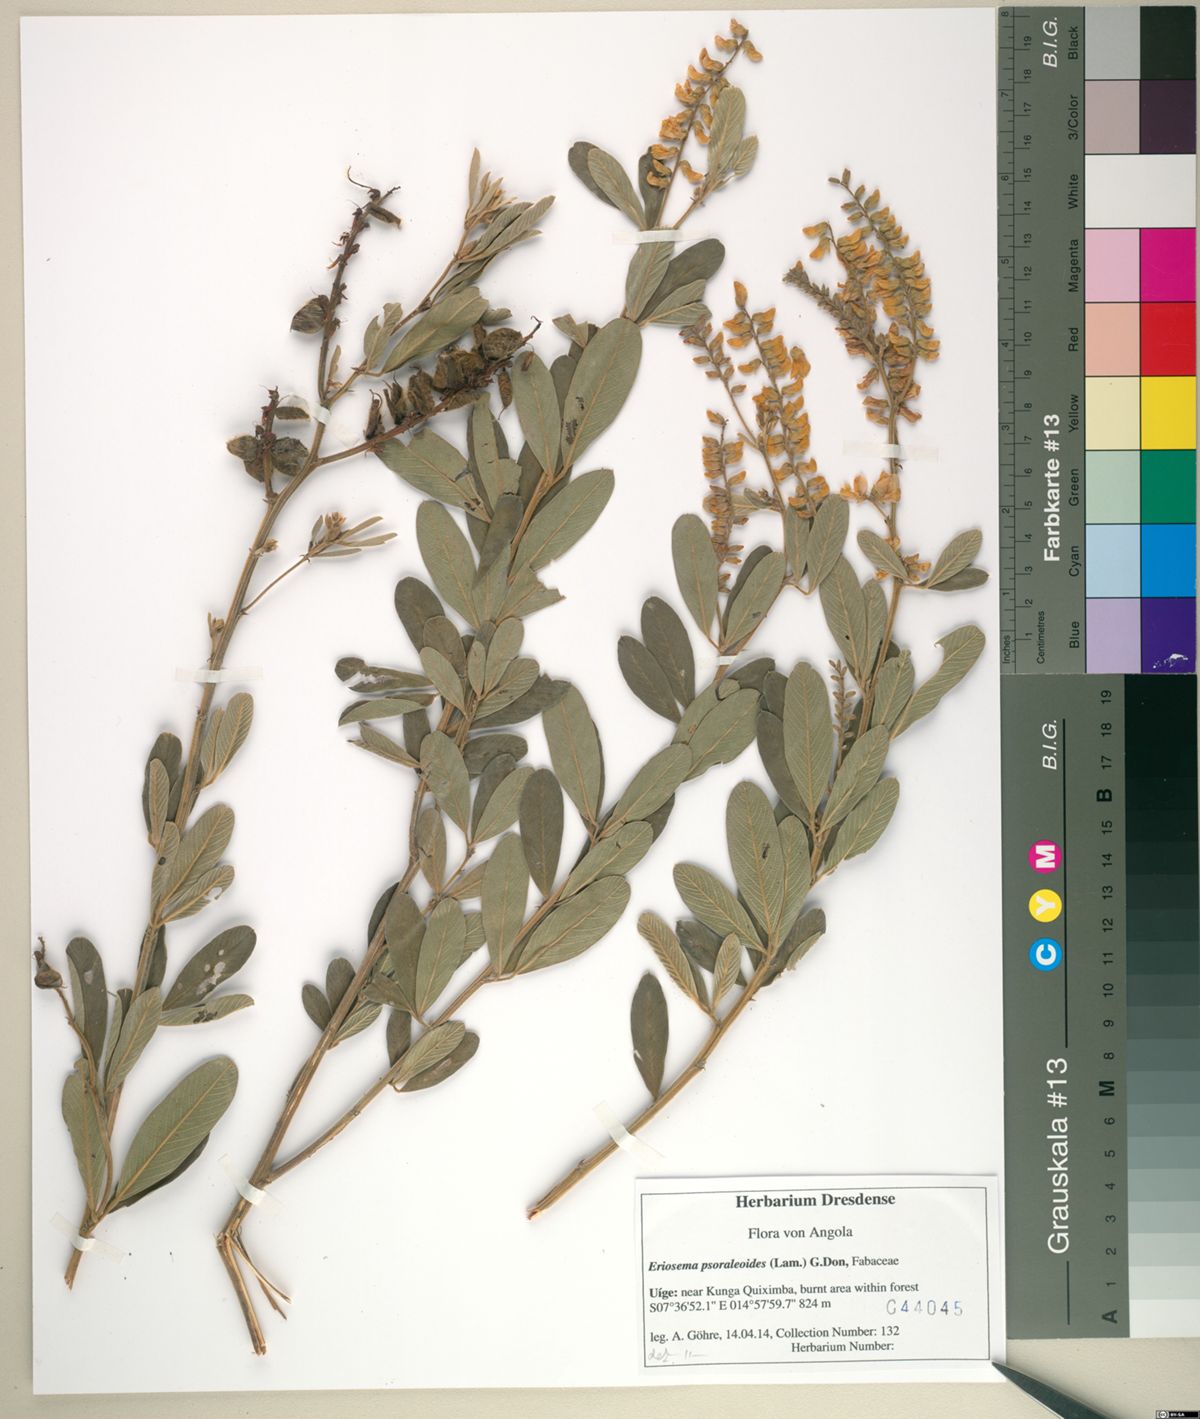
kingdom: Plantae
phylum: Tracheophyta
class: Magnoliopsida
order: Fabales
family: Fabaceae
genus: Eriosema
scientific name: Eriosema psoraleoides
